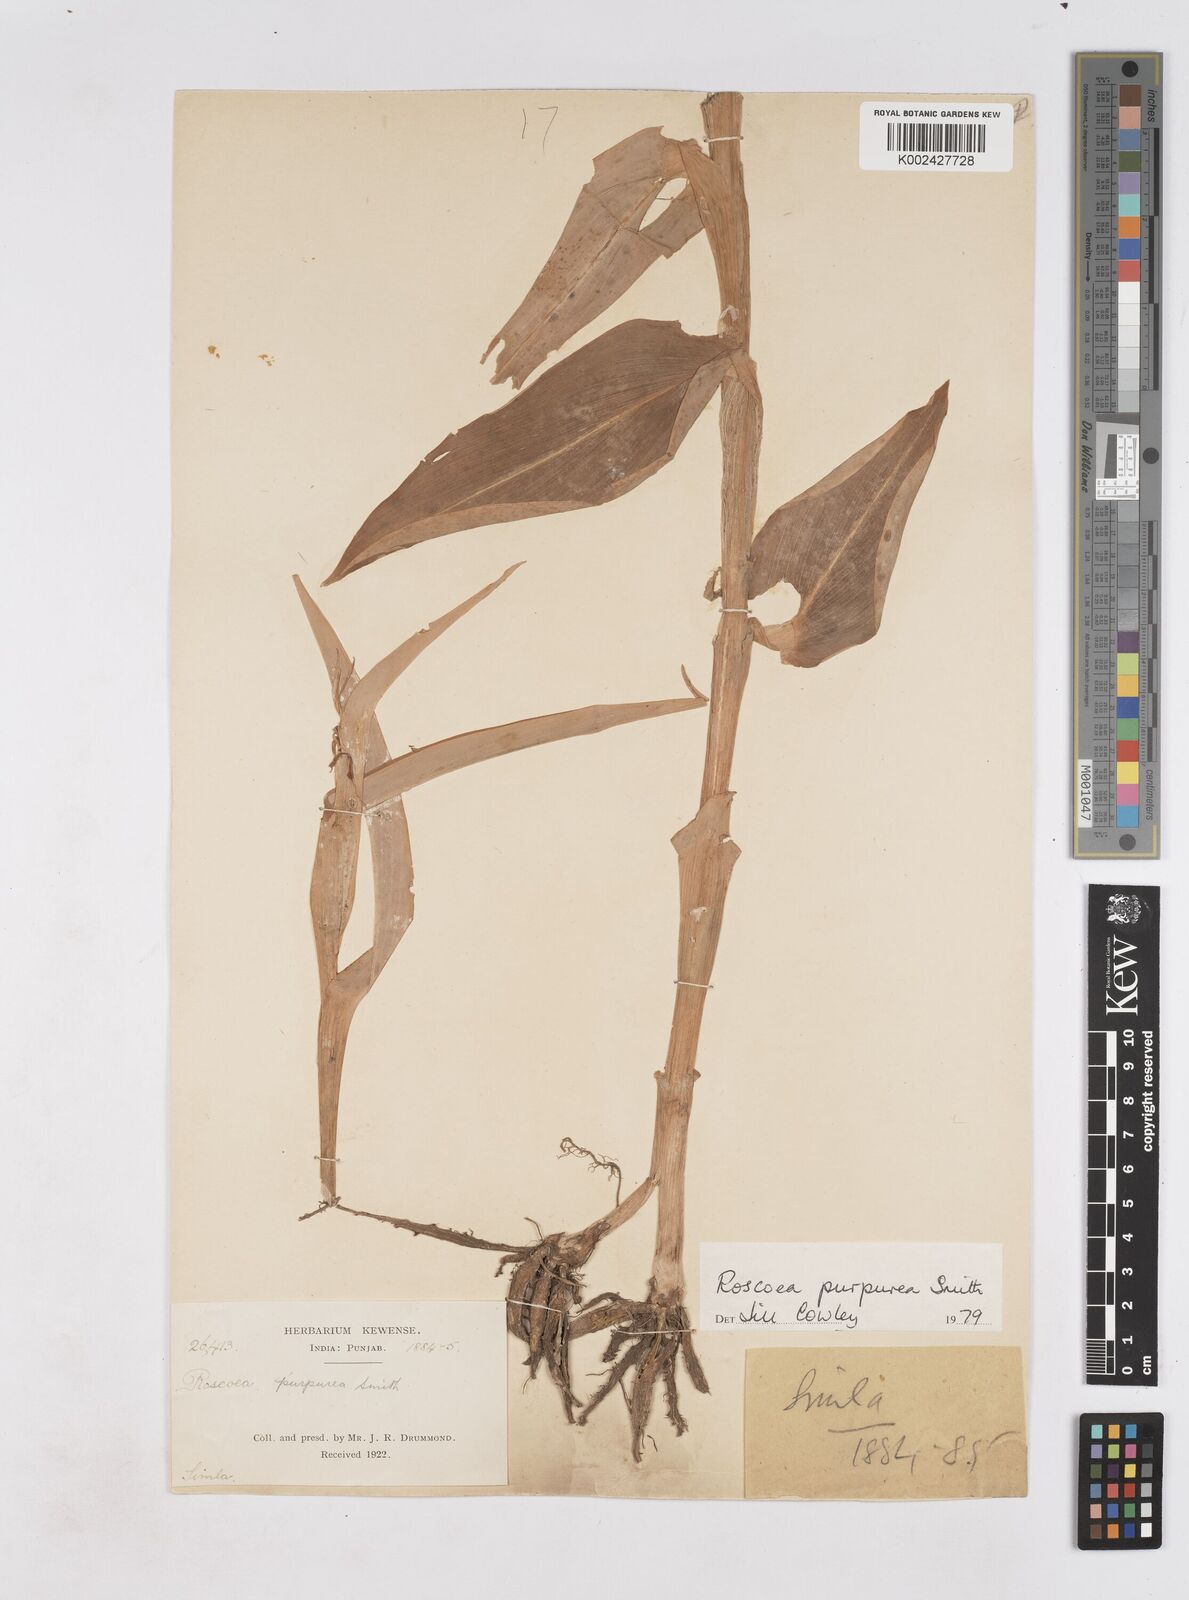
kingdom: Plantae
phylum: Tracheophyta
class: Liliopsida
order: Zingiberales
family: Zingiberaceae
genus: Roscoea
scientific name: Roscoea purpurea
